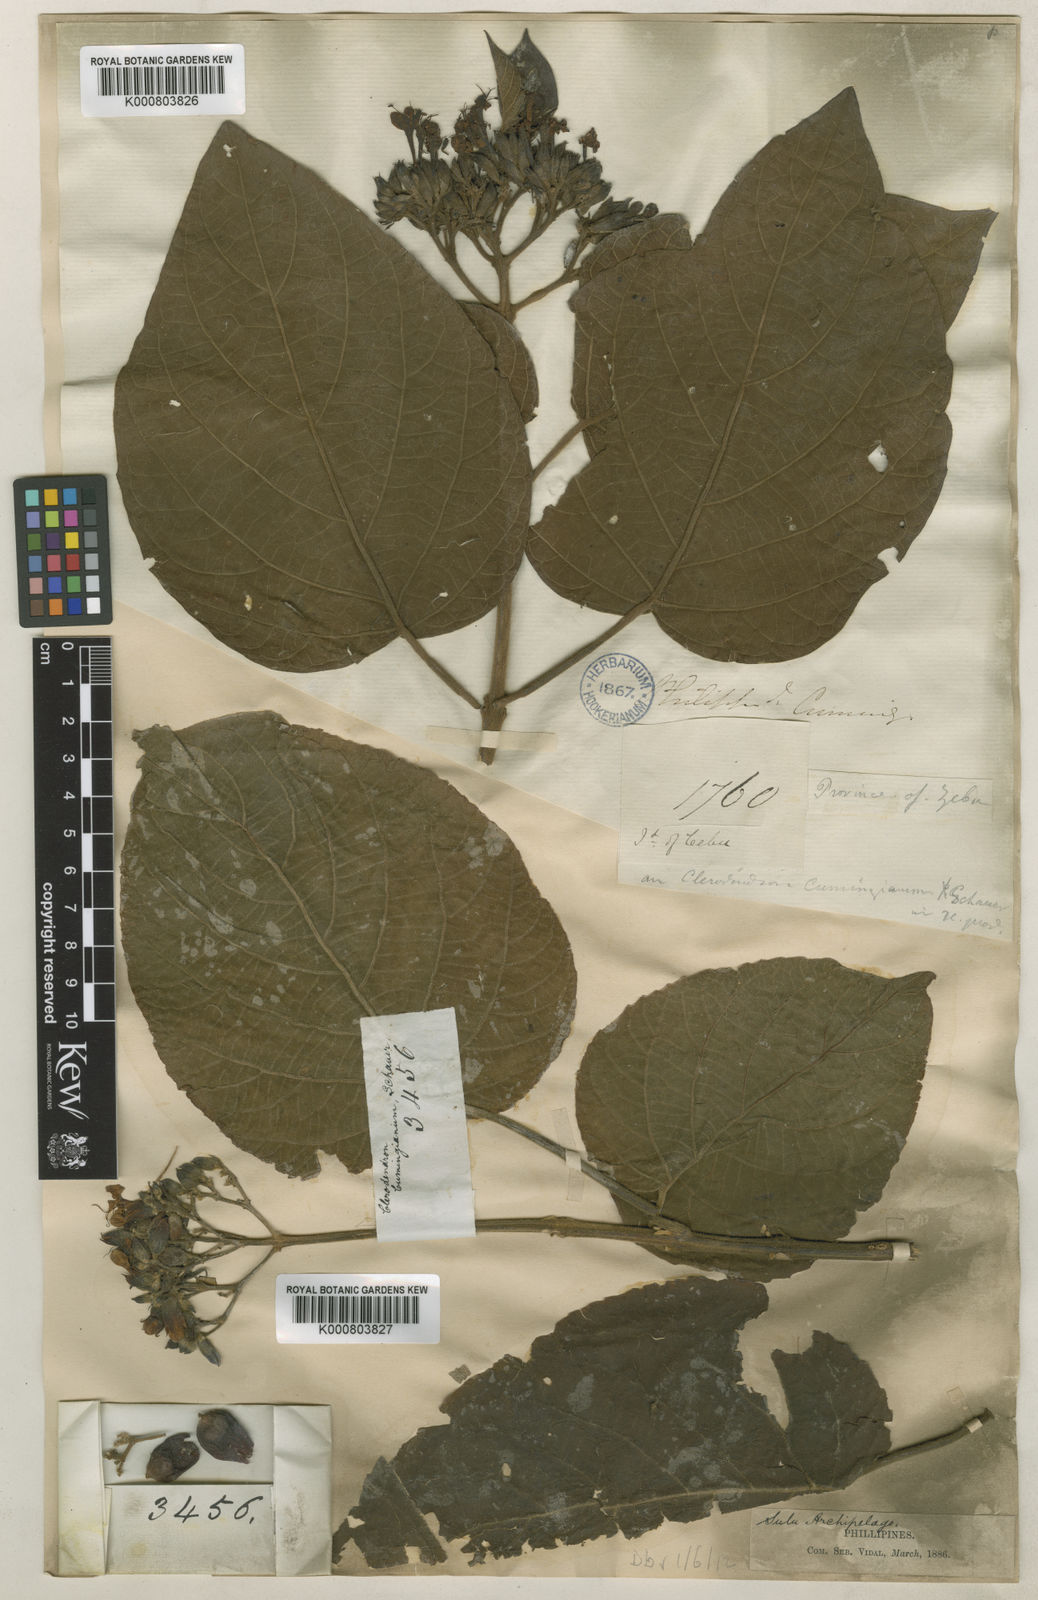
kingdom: Plantae
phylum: Tracheophyta
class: Magnoliopsida
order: Lamiales
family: Lamiaceae
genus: Clerodendrum
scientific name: Clerodendrum lanuginosum
